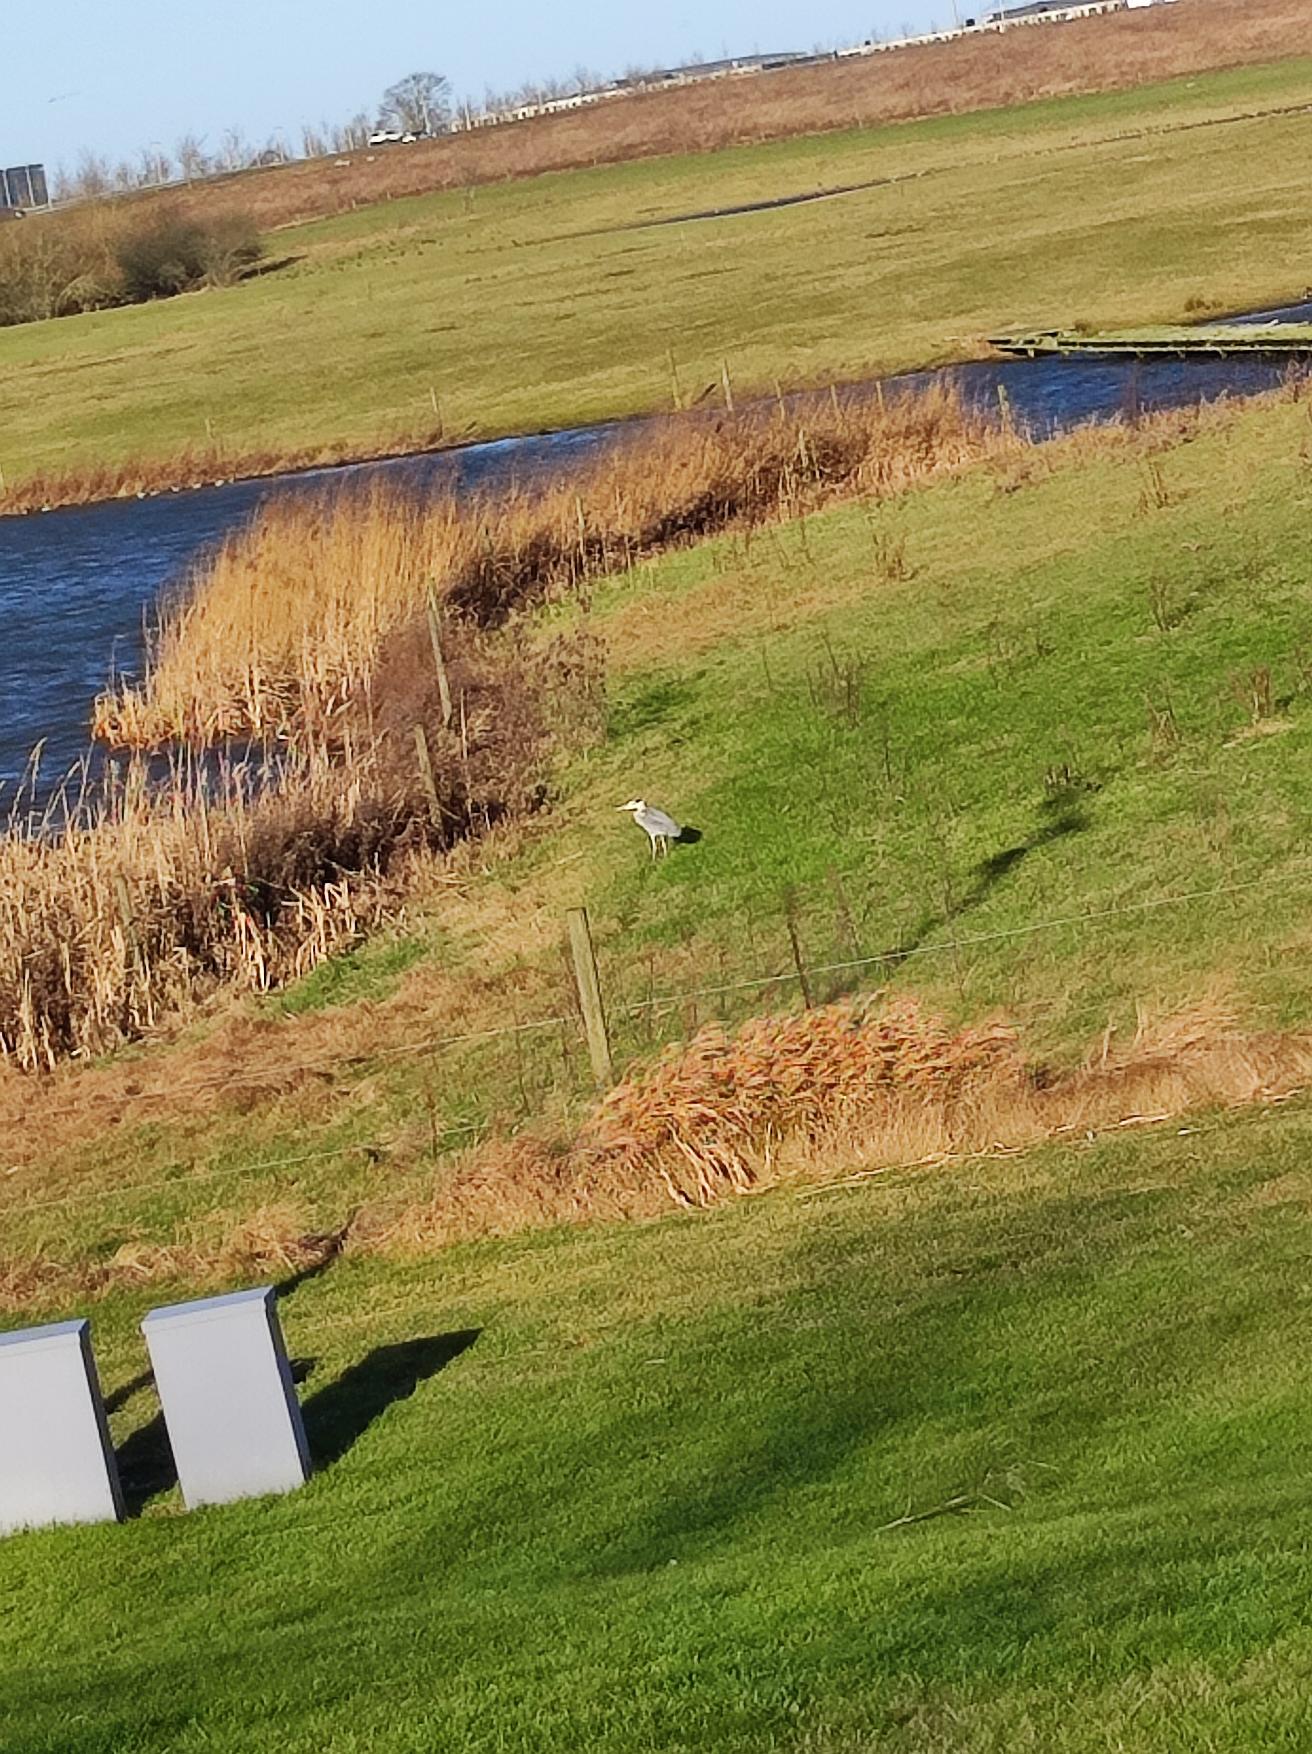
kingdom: Animalia
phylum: Chordata
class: Aves
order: Pelecaniformes
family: Ardeidae
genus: Ardea
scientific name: Ardea cinerea
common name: Fiskehejre
